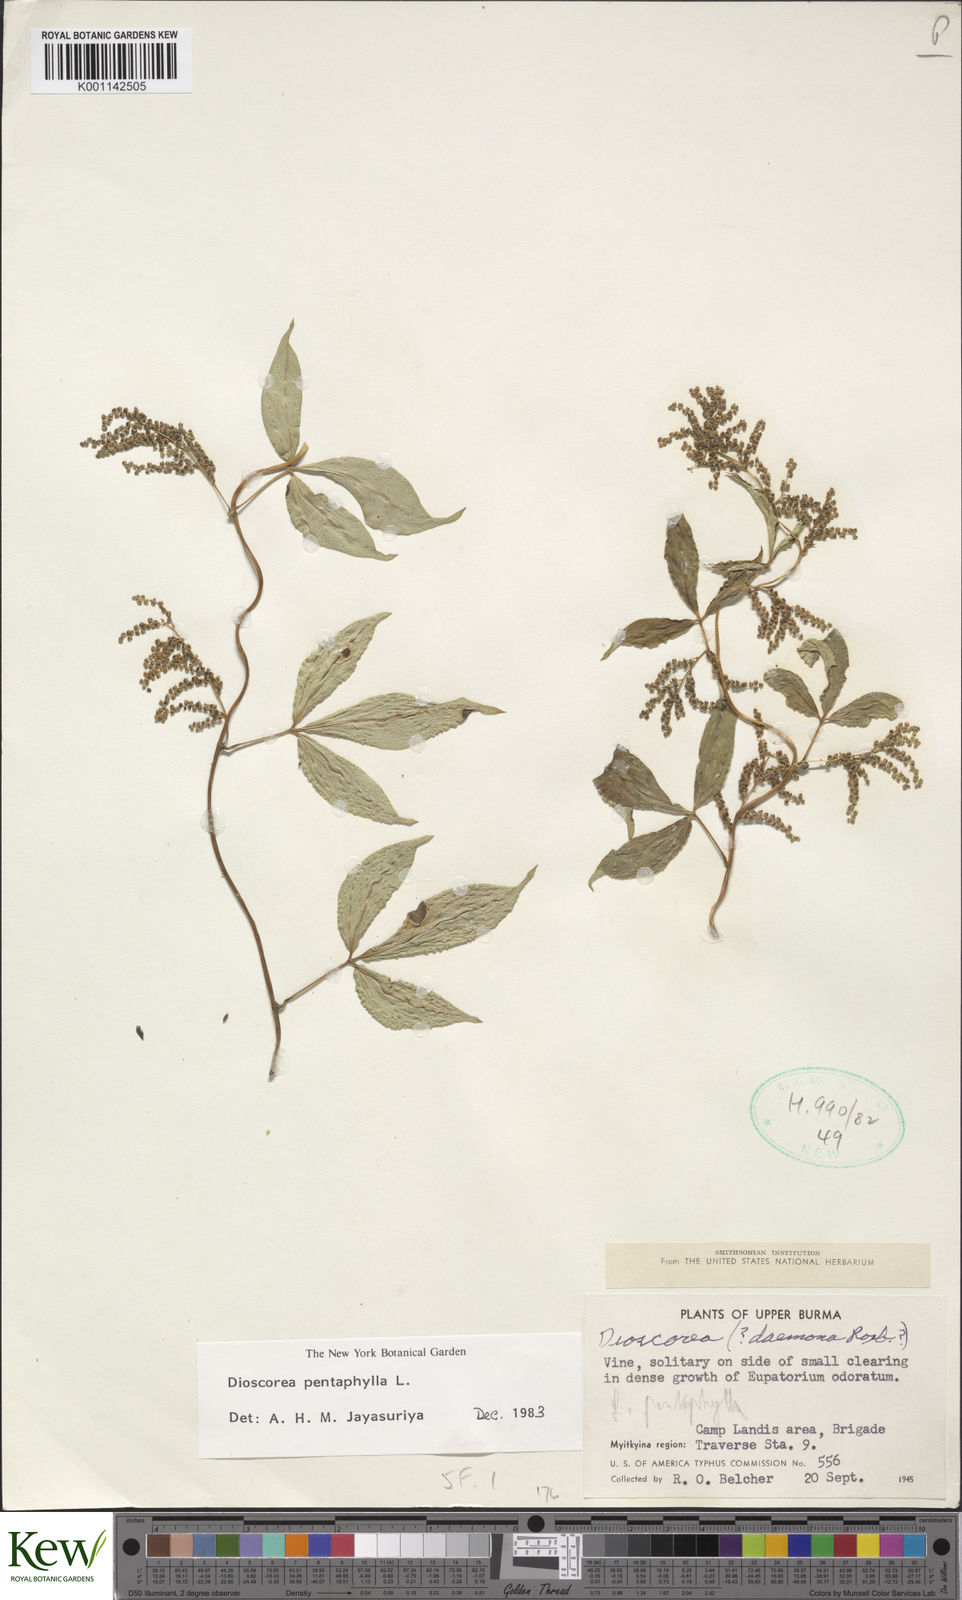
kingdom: Plantae
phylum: Tracheophyta
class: Liliopsida
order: Dioscoreales
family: Dioscoreaceae
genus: Dioscorea
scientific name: Dioscorea pentaphylla
